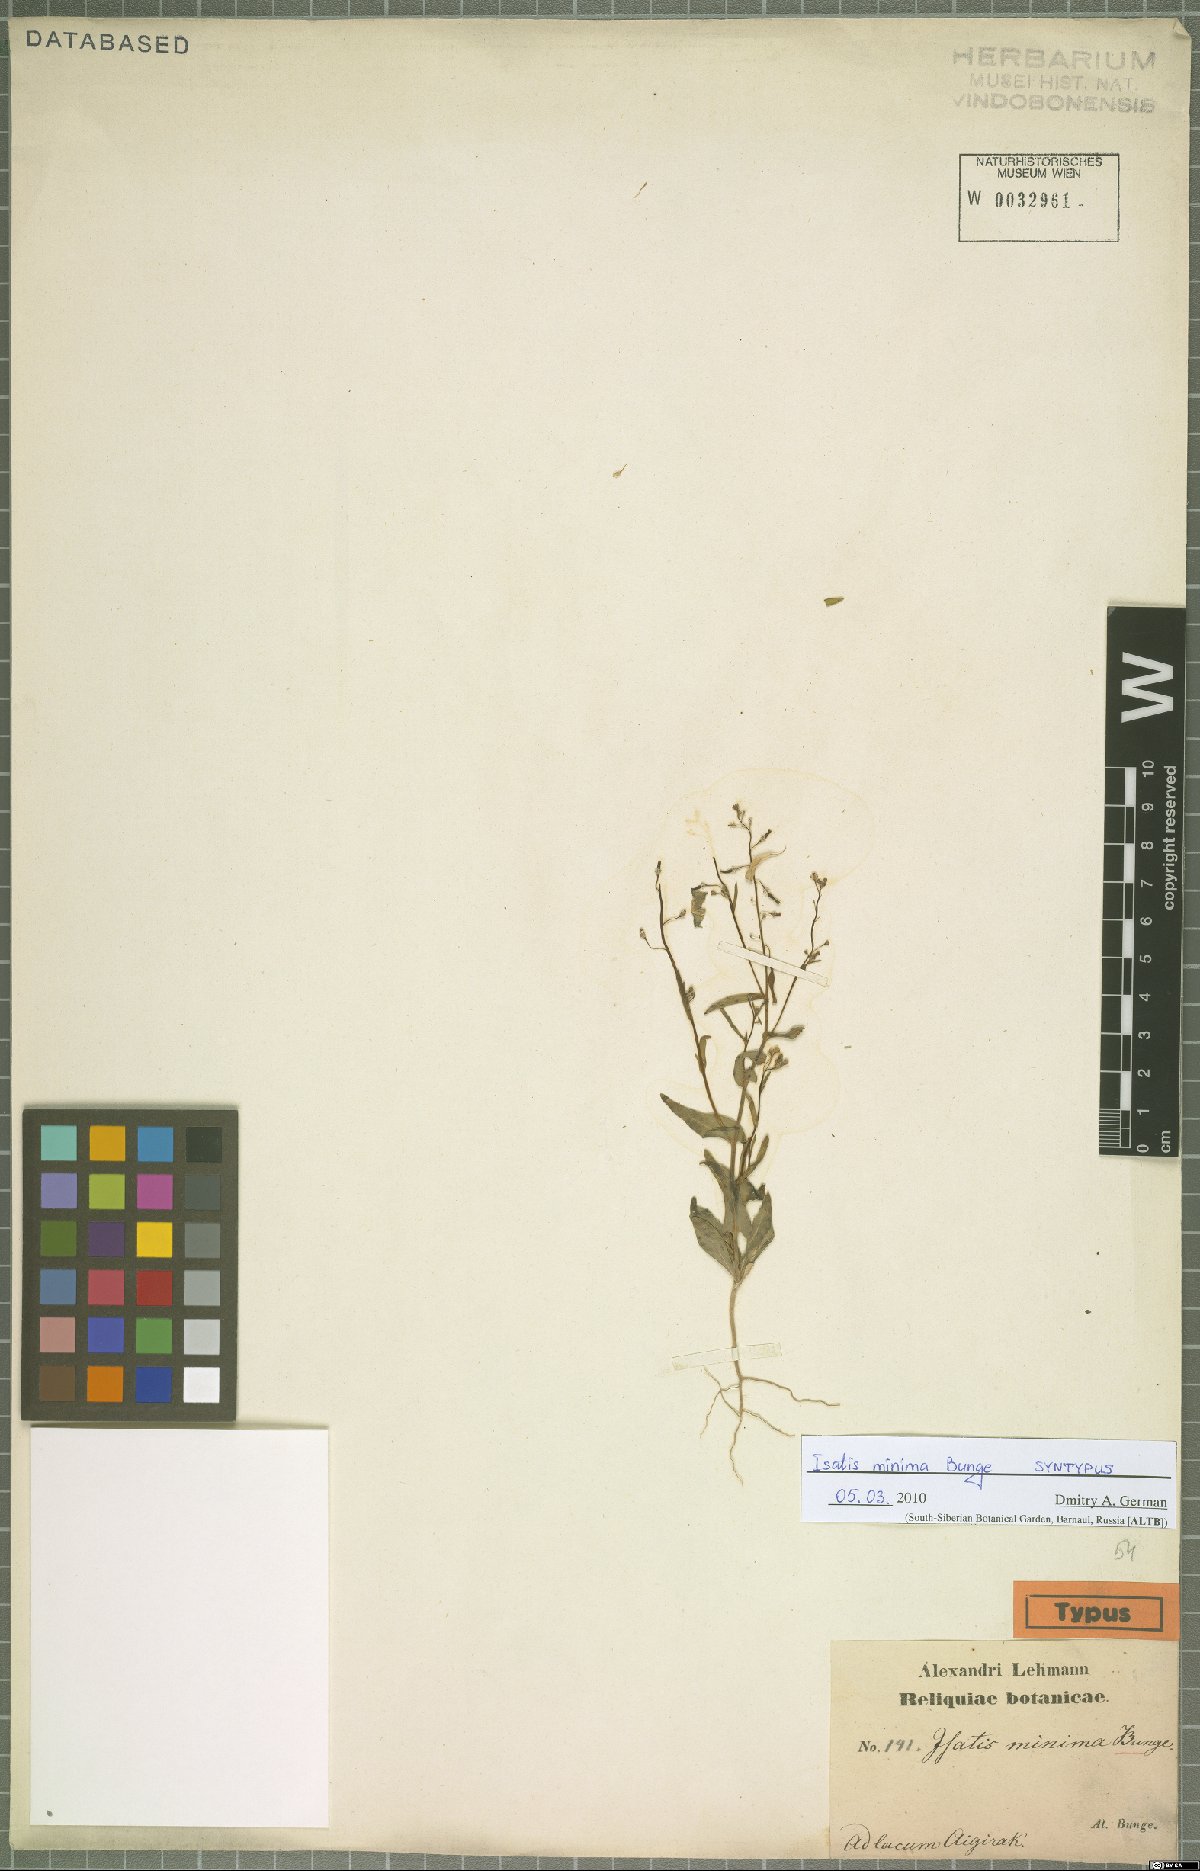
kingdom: Plantae
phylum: Tracheophyta
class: Magnoliopsida
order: Brassicales
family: Brassicaceae
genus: Isatis
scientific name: Isatis minima
